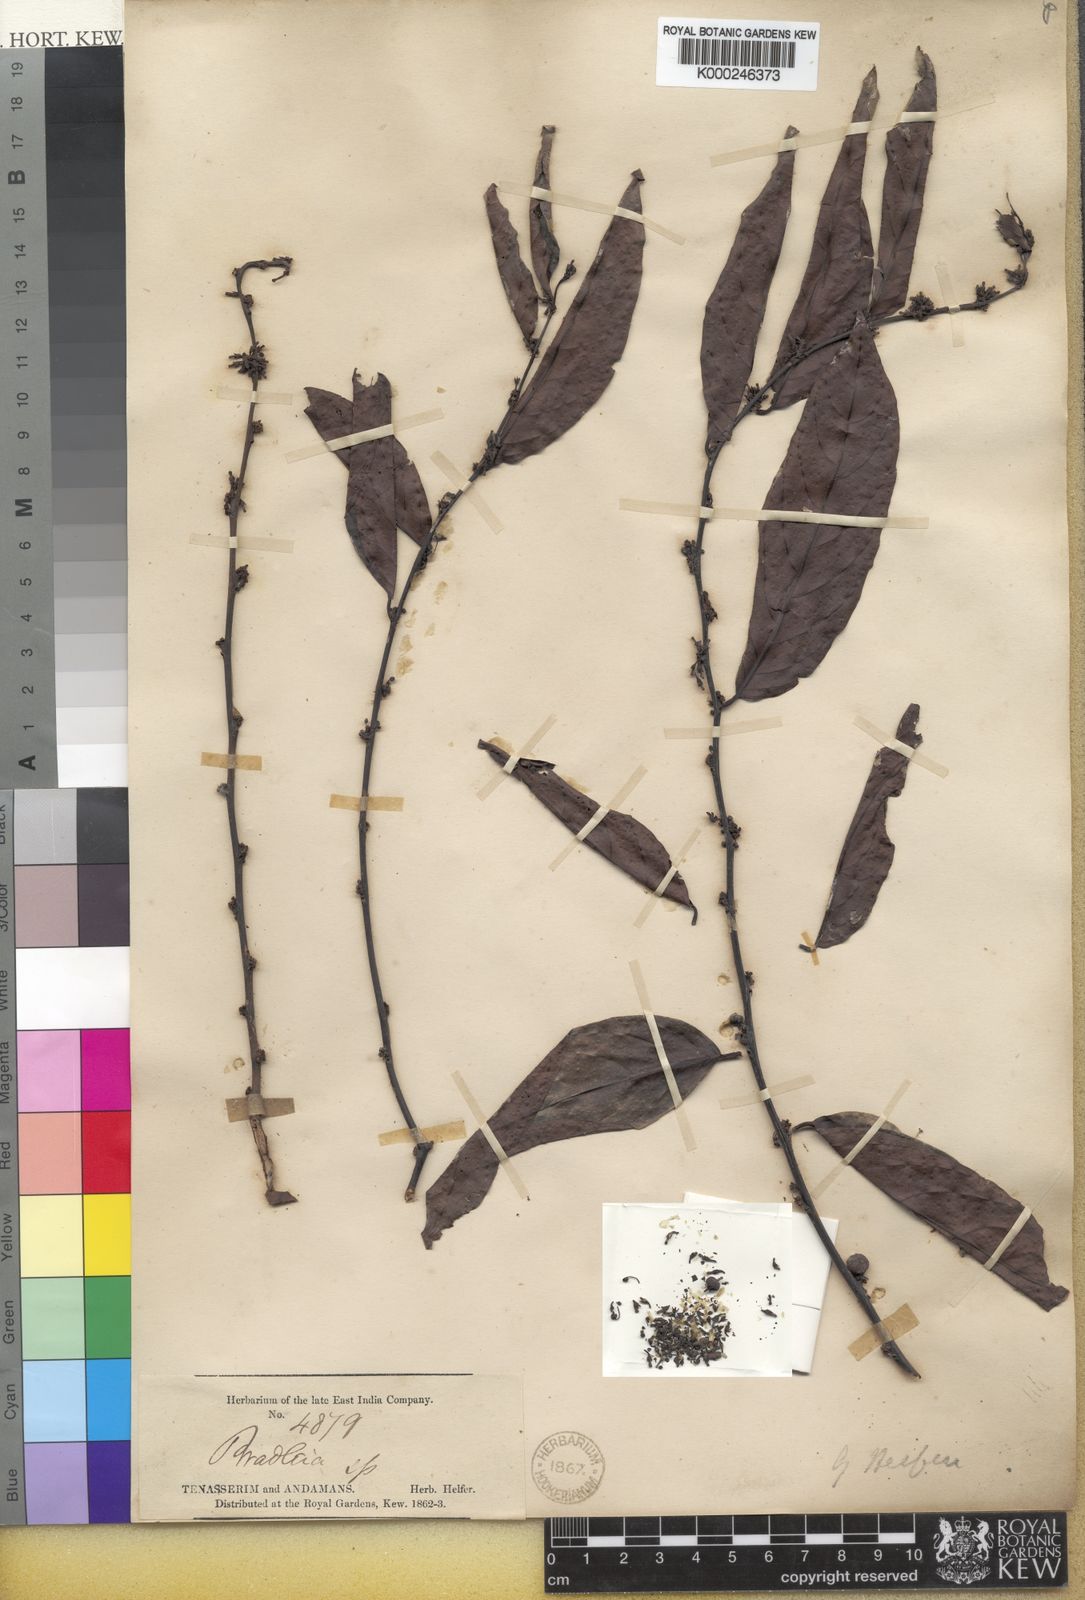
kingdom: Plantae
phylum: Tracheophyta
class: Magnoliopsida
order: Malpighiales
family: Phyllanthaceae
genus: Glochidion
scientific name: Glochidion helferi
